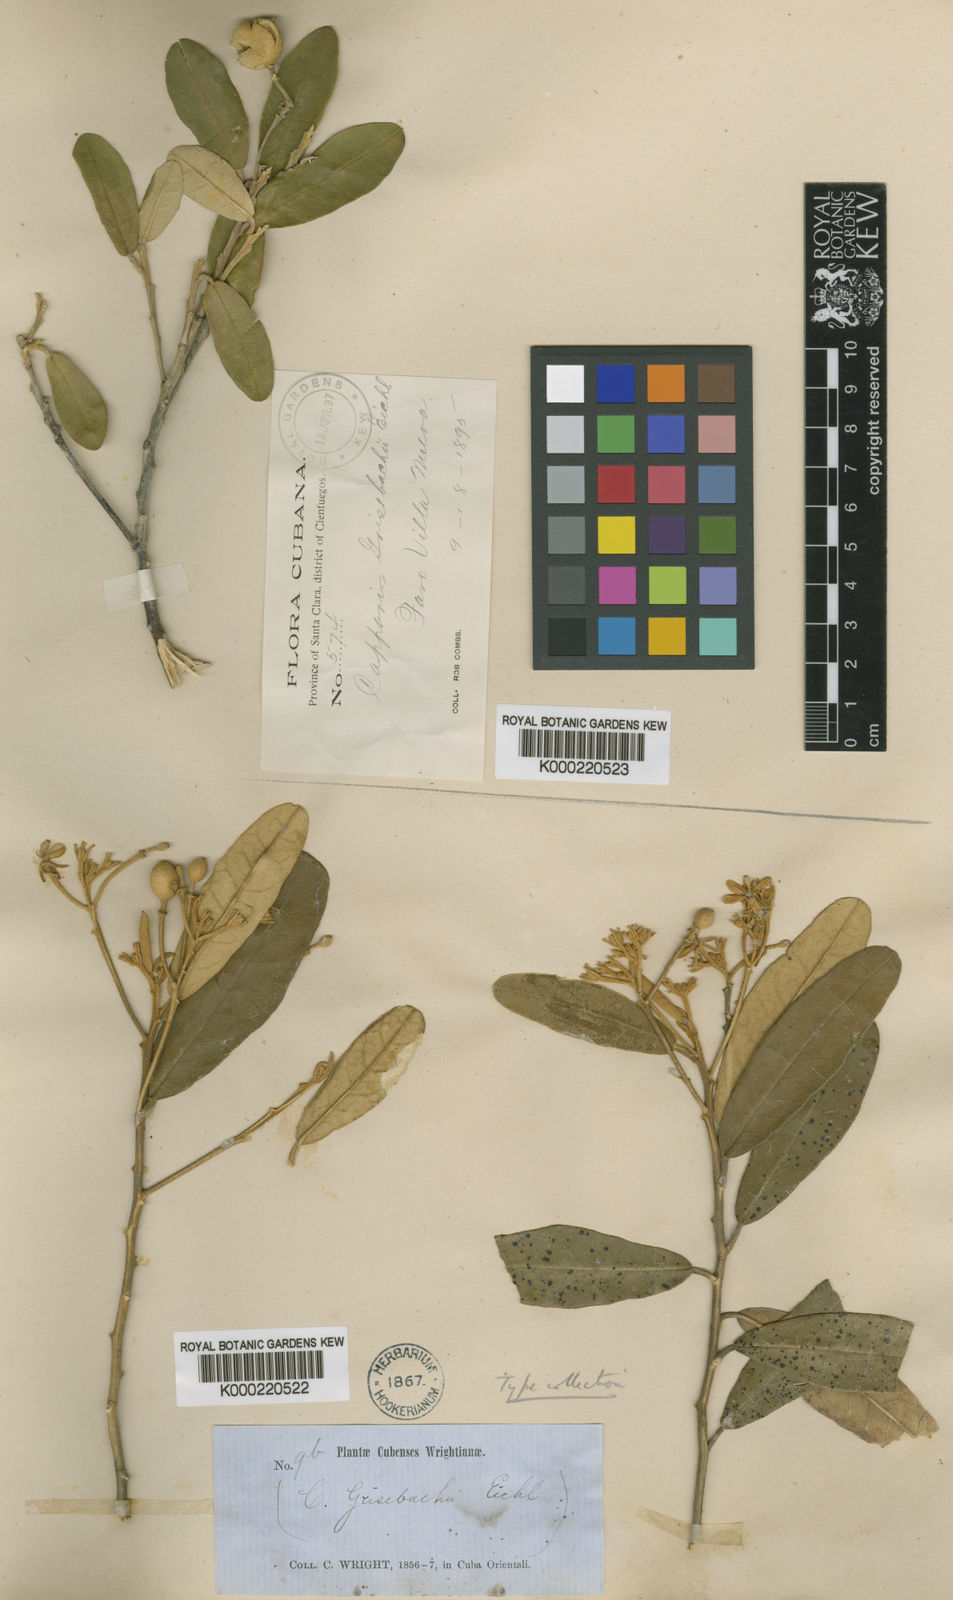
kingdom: Plantae
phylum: Tracheophyta
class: Magnoliopsida
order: Brassicales
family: Capparaceae
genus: Quadrella
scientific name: Quadrella domingensis
